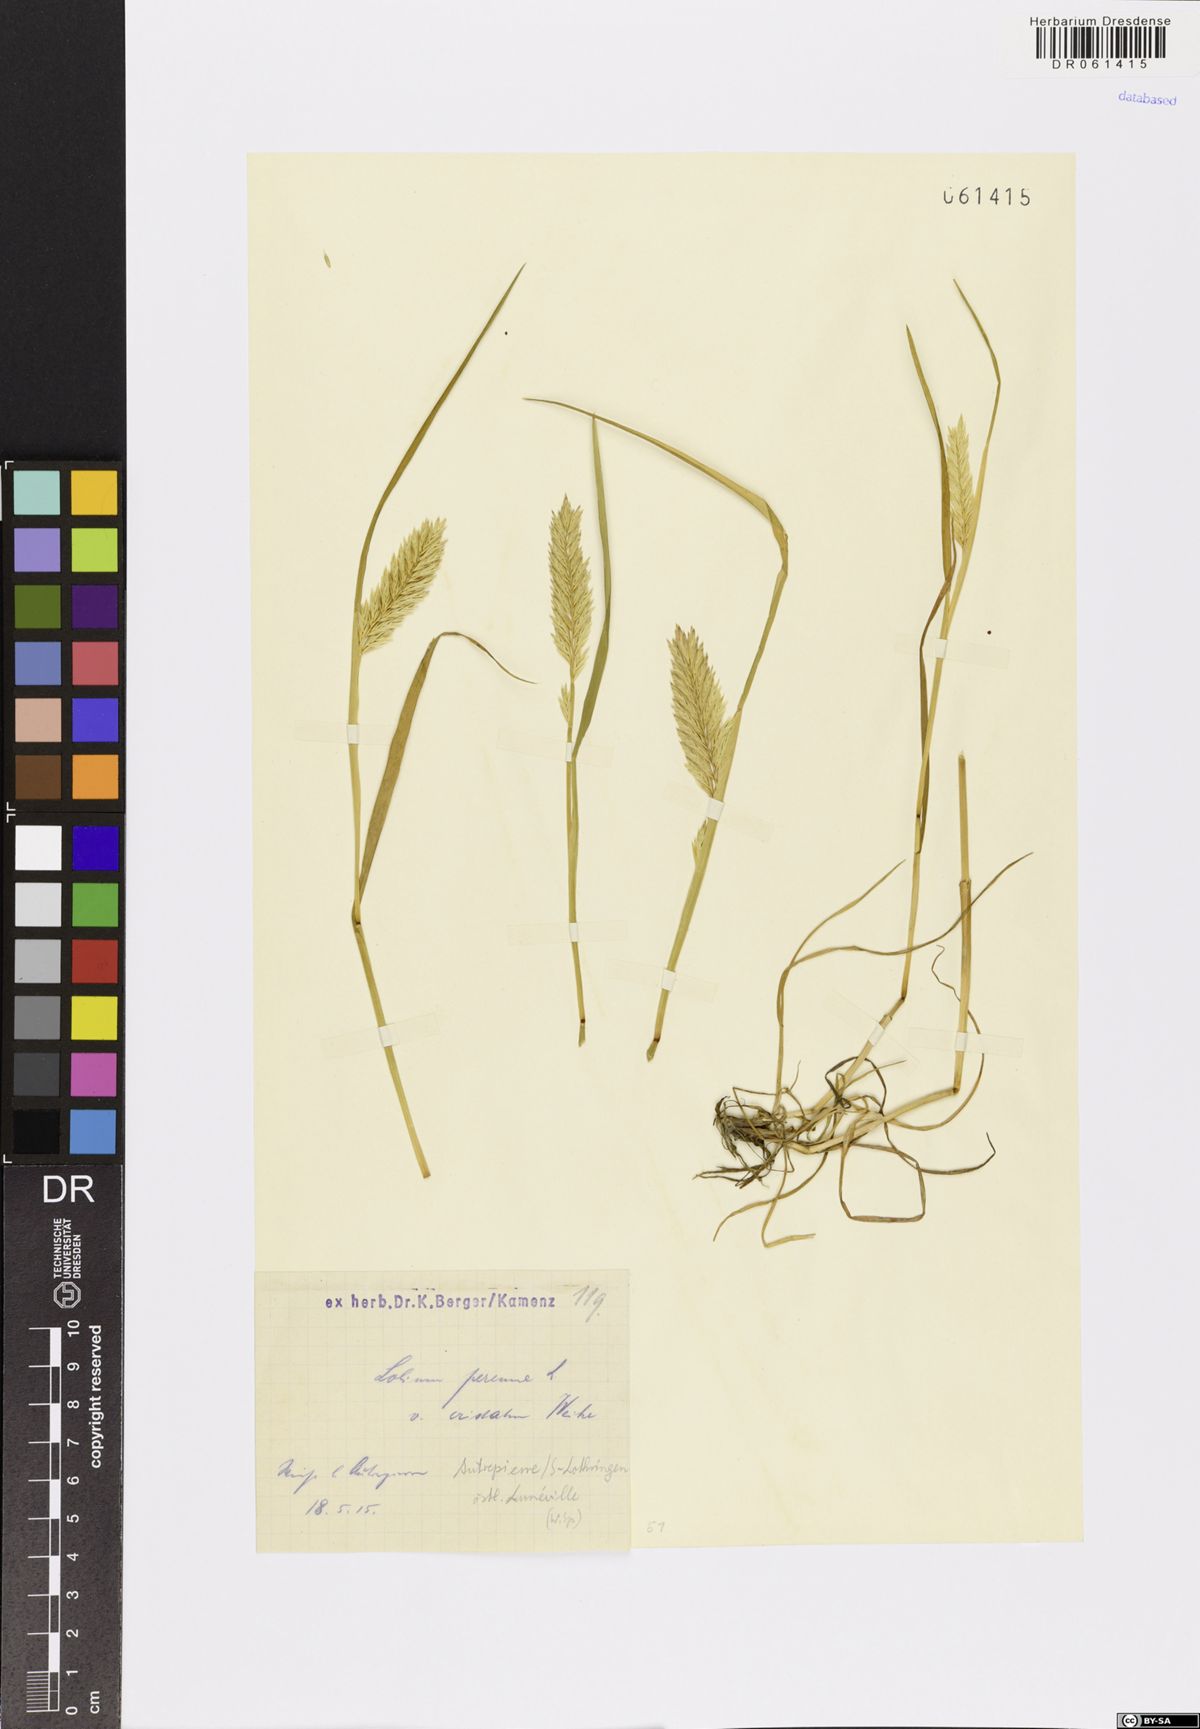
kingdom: Plantae
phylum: Tracheophyta
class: Liliopsida
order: Poales
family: Poaceae
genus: Lolium
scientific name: Lolium perenne
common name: Perennial ryegrass
